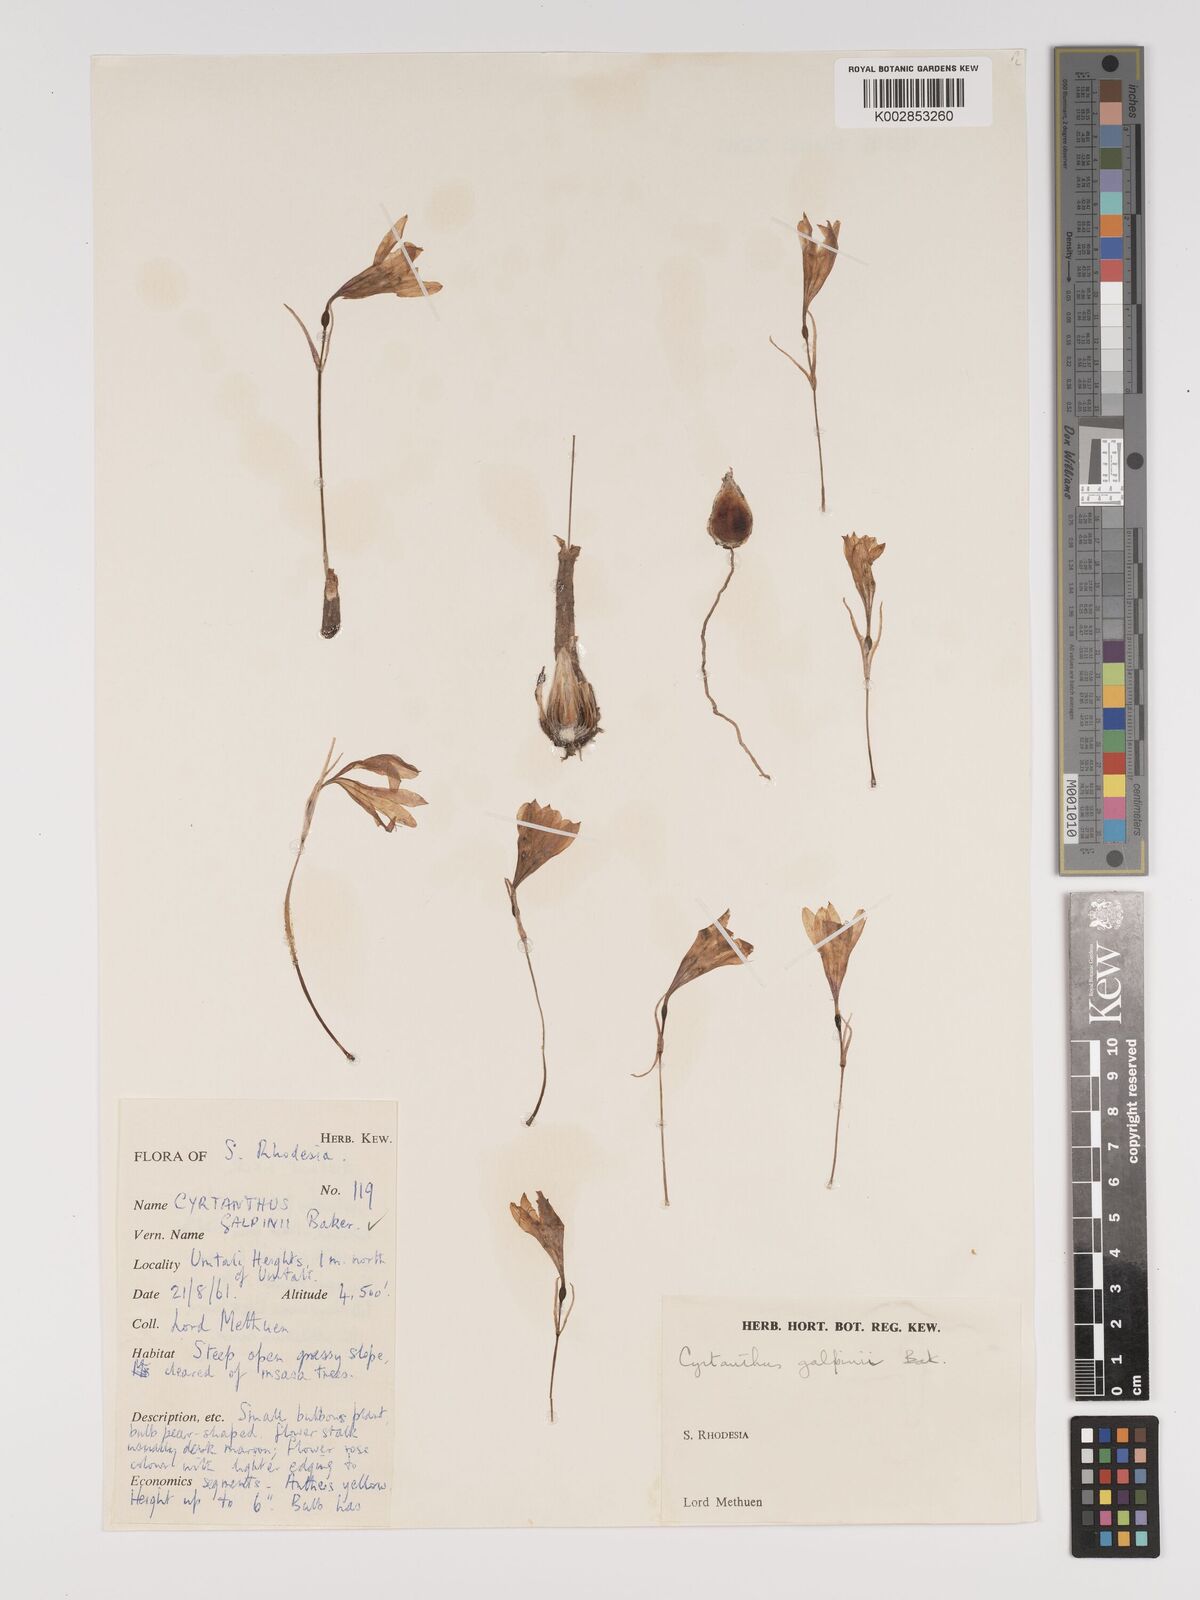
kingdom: Plantae
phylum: Tracheophyta
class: Liliopsida
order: Asparagales
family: Amaryllidaceae
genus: Cyrtanthus
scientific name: Cyrtanthus galpinii
